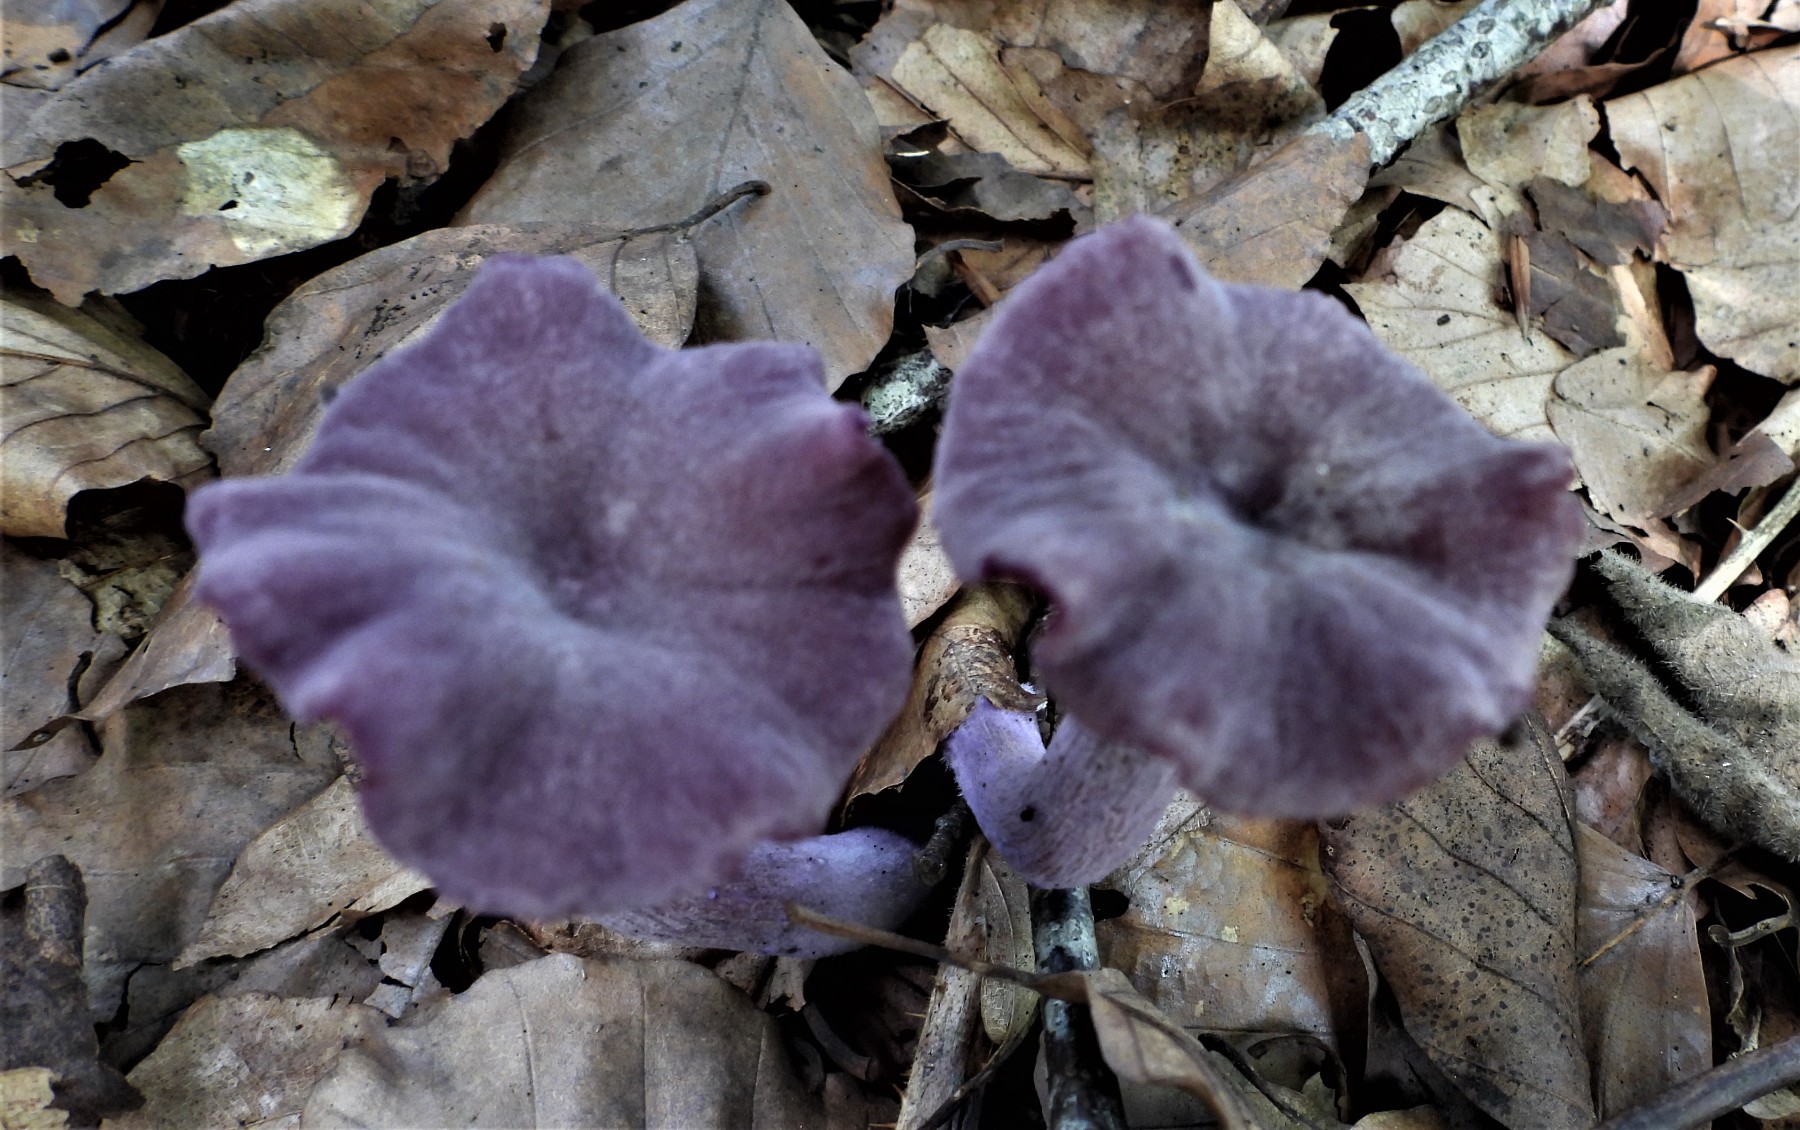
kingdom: Fungi
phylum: Basidiomycota
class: Agaricomycetes
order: Agaricales
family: Hydnangiaceae
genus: Laccaria
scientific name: Laccaria amethystina
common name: violet ametysthat
